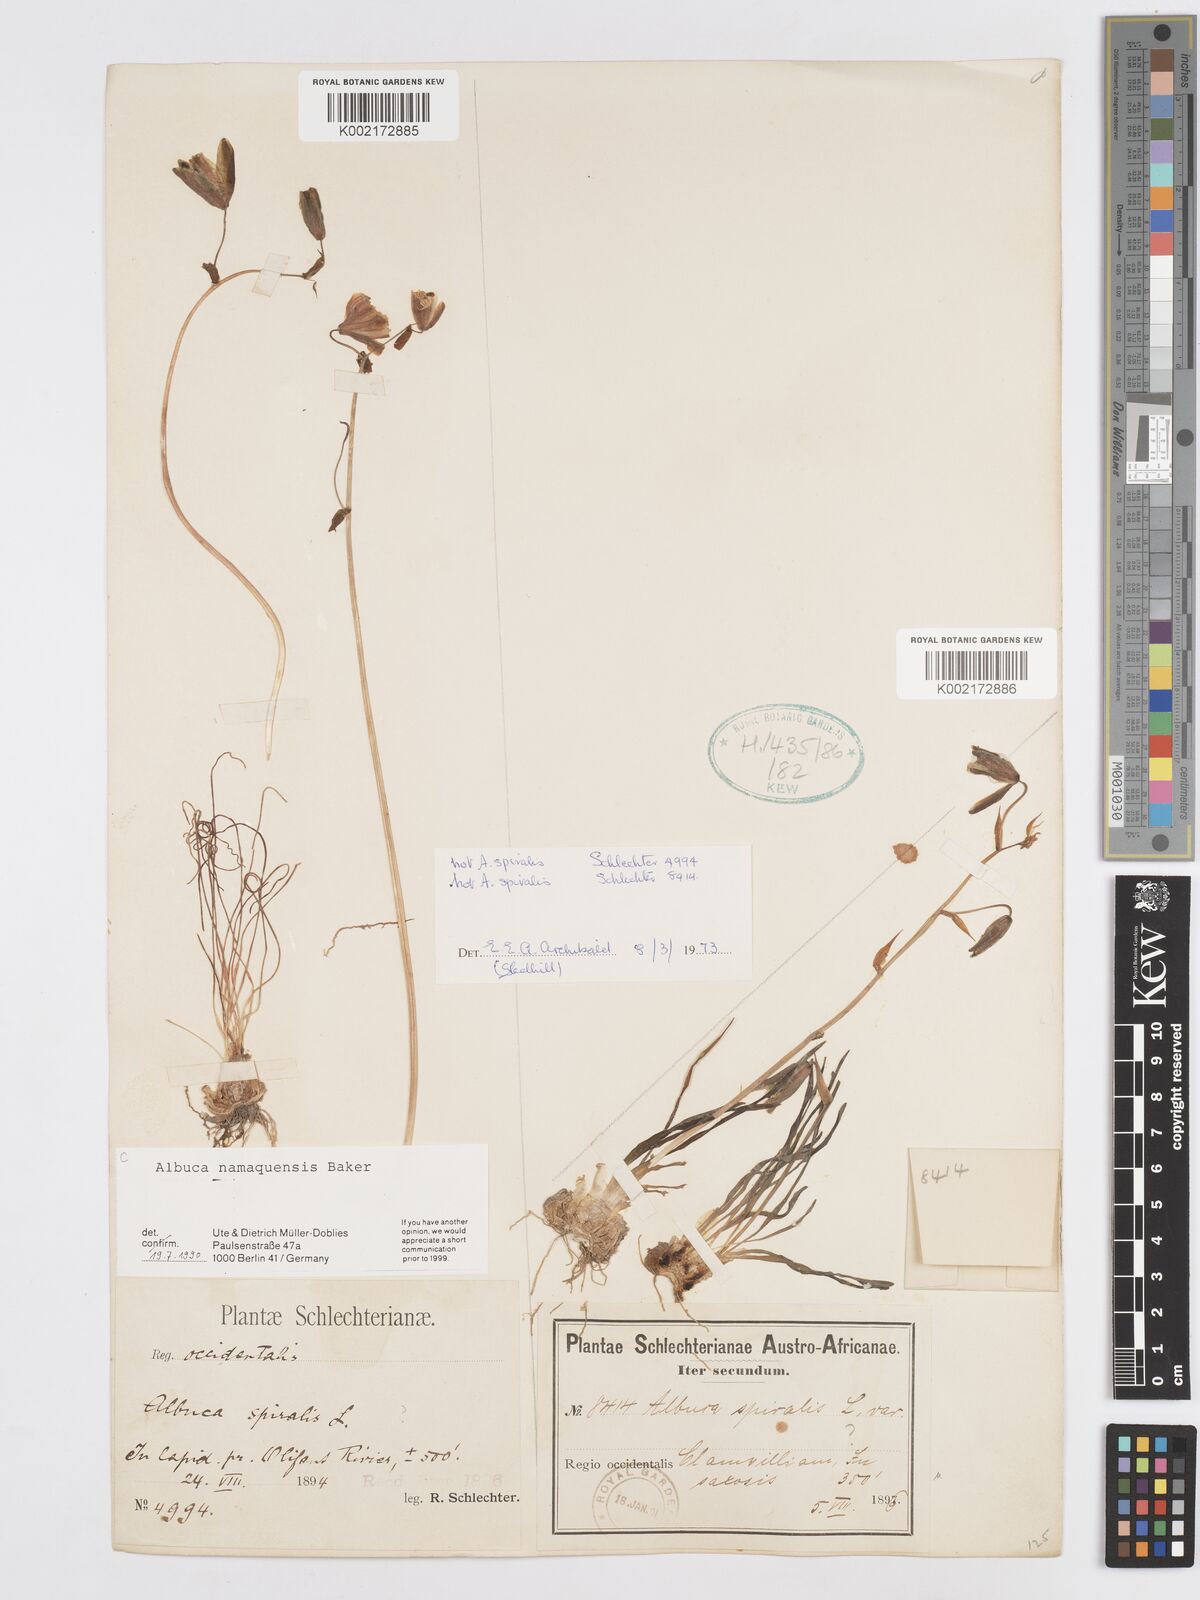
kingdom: Plantae
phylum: Tracheophyta
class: Liliopsida
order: Asparagales
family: Asparagaceae
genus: Albuca
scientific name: Albuca namaquensis
